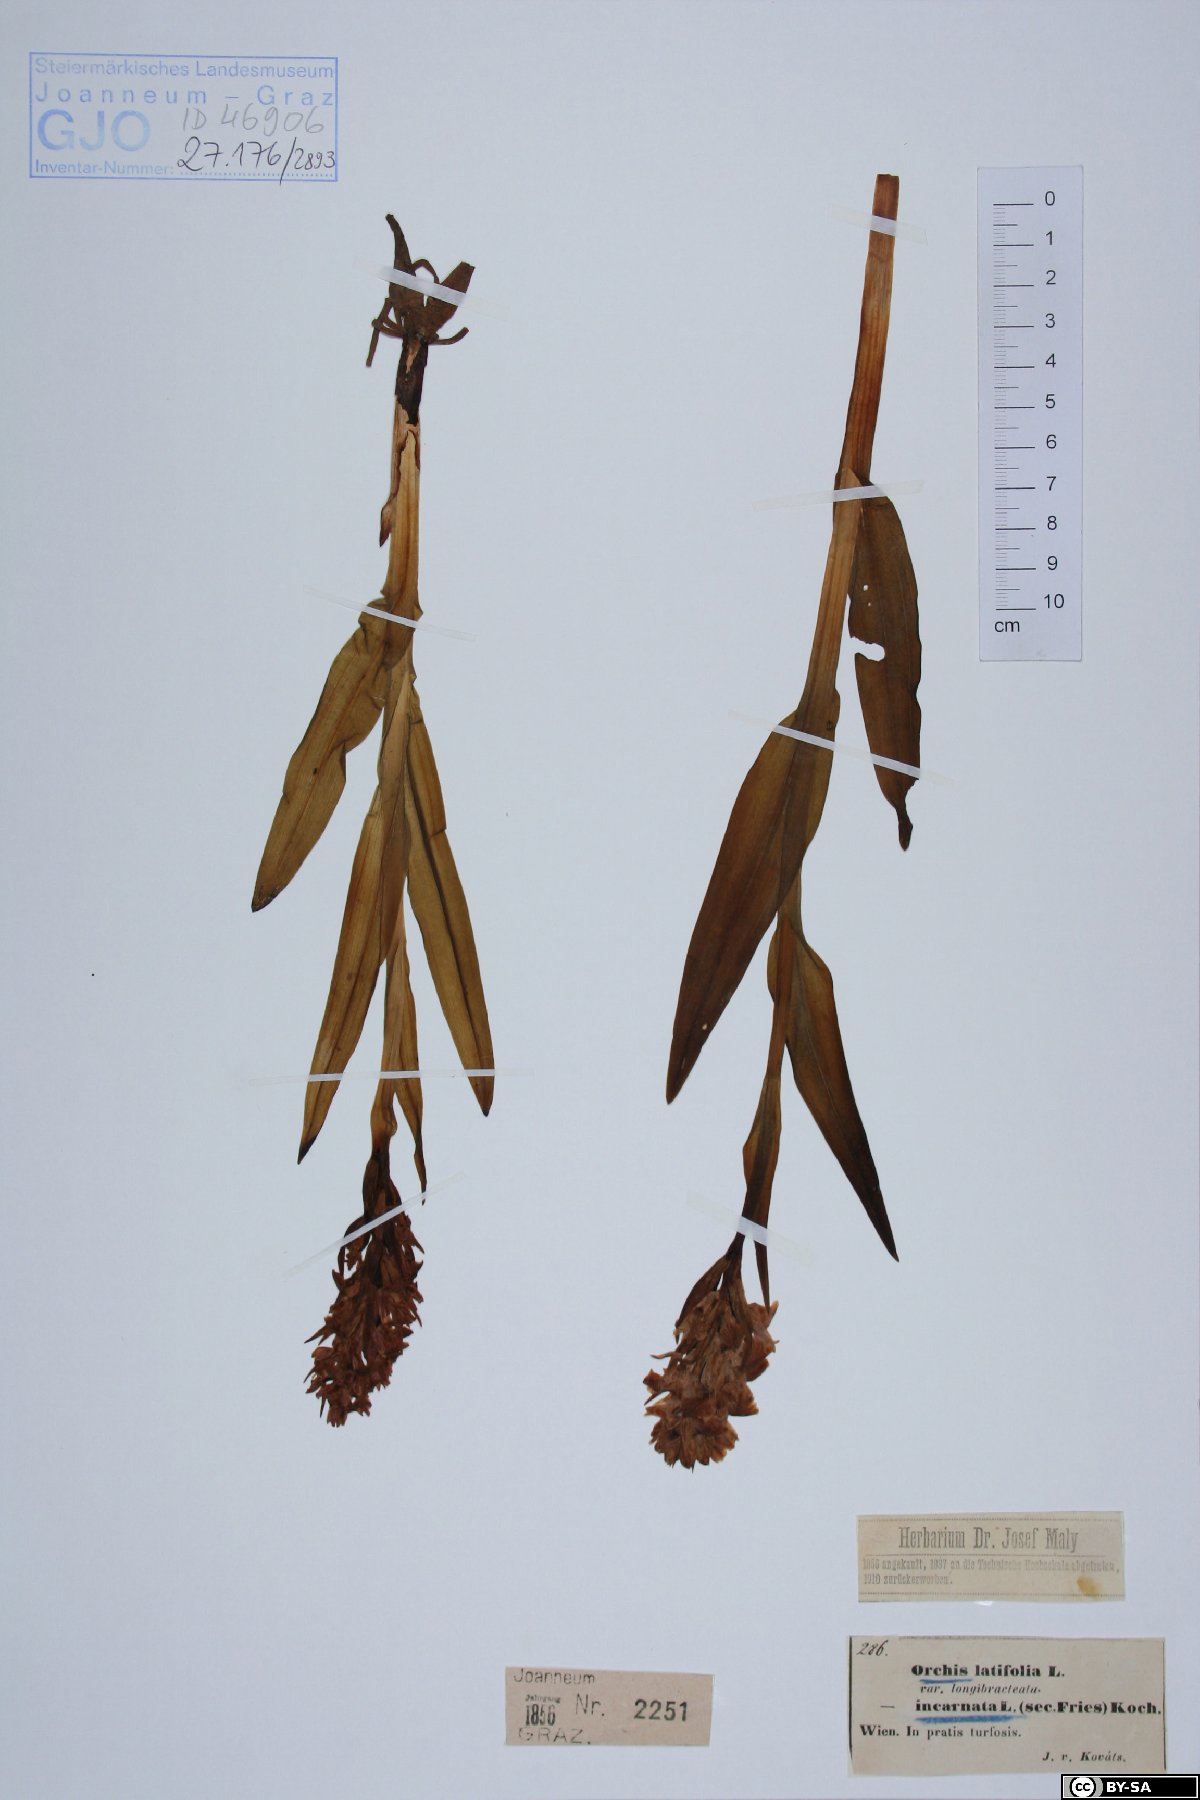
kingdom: Plantae
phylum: Tracheophyta
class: Liliopsida
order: Asparagales
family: Orchidaceae
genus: Dactylorhiza
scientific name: Dactylorhiza incarnata
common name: Early marsh-orchid
